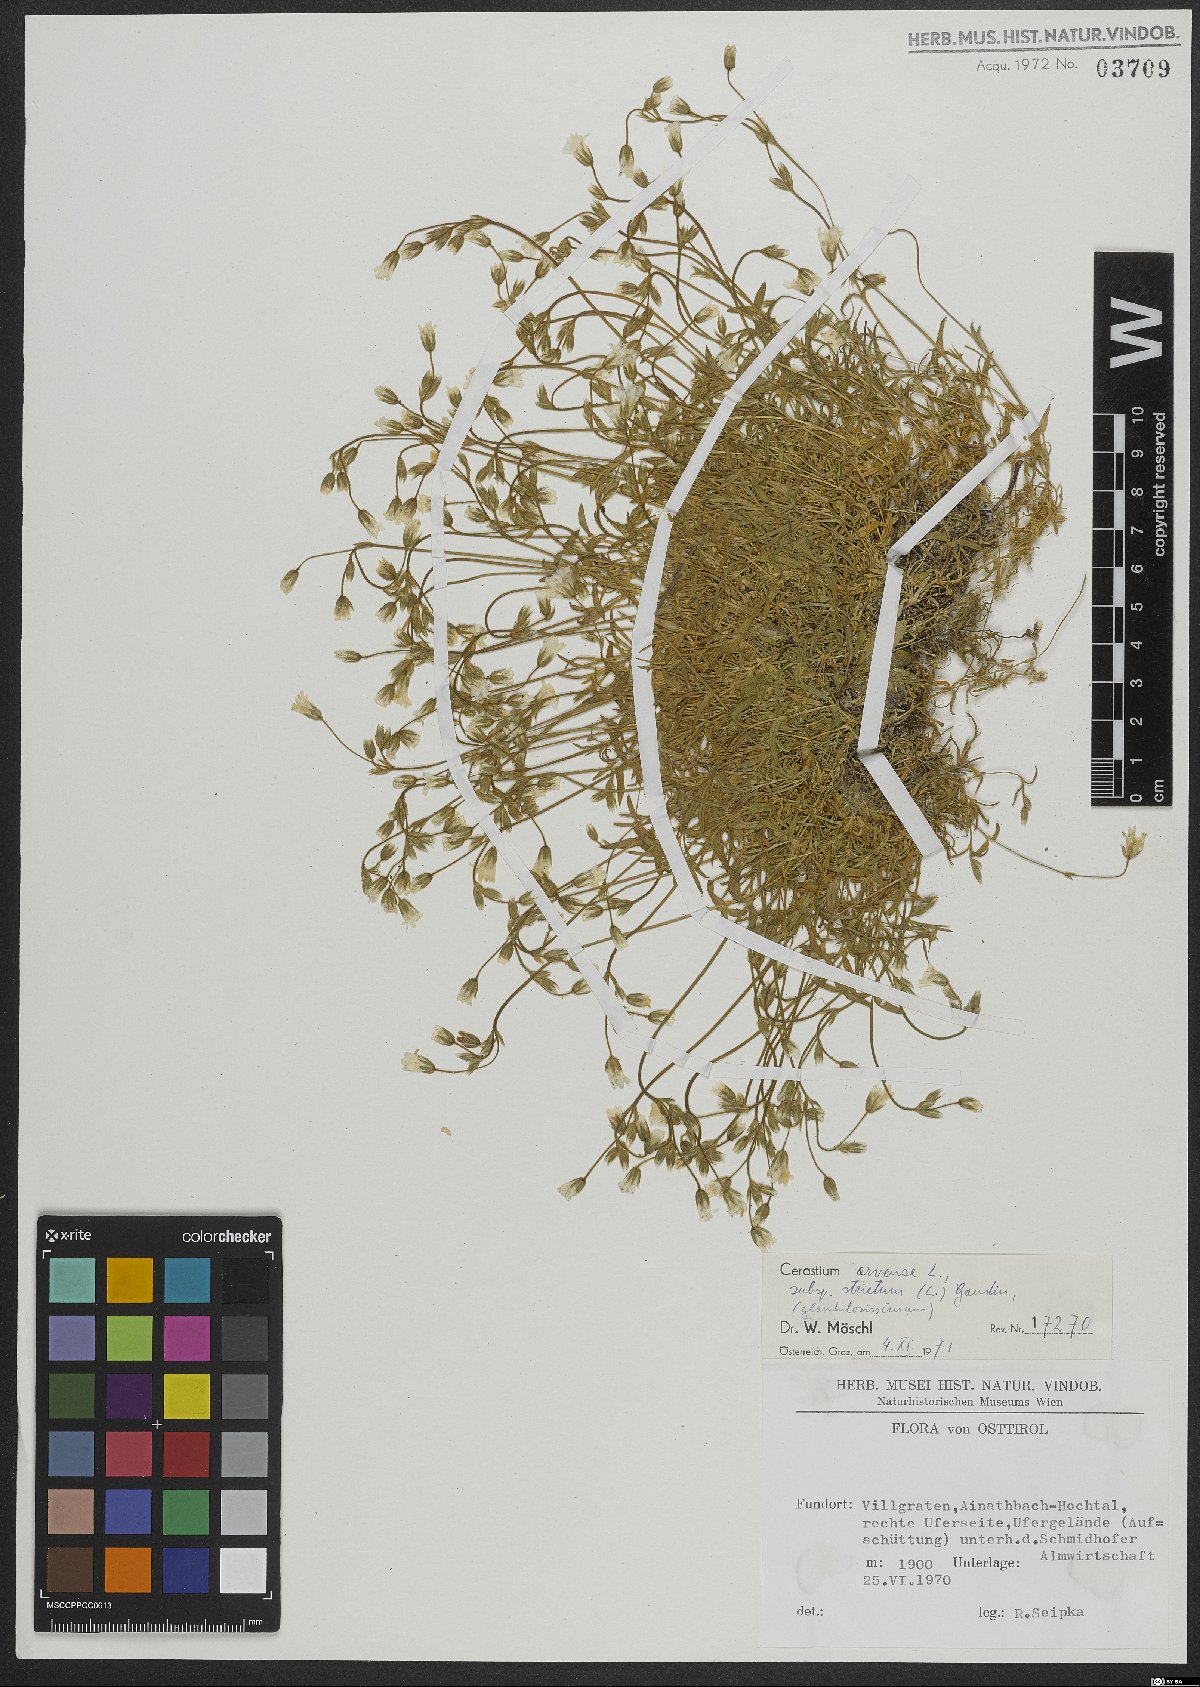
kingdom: Plantae
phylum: Tracheophyta
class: Magnoliopsida
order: Caryophyllales
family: Caryophyllaceae
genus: Cerastium
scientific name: Cerastium elongatum
